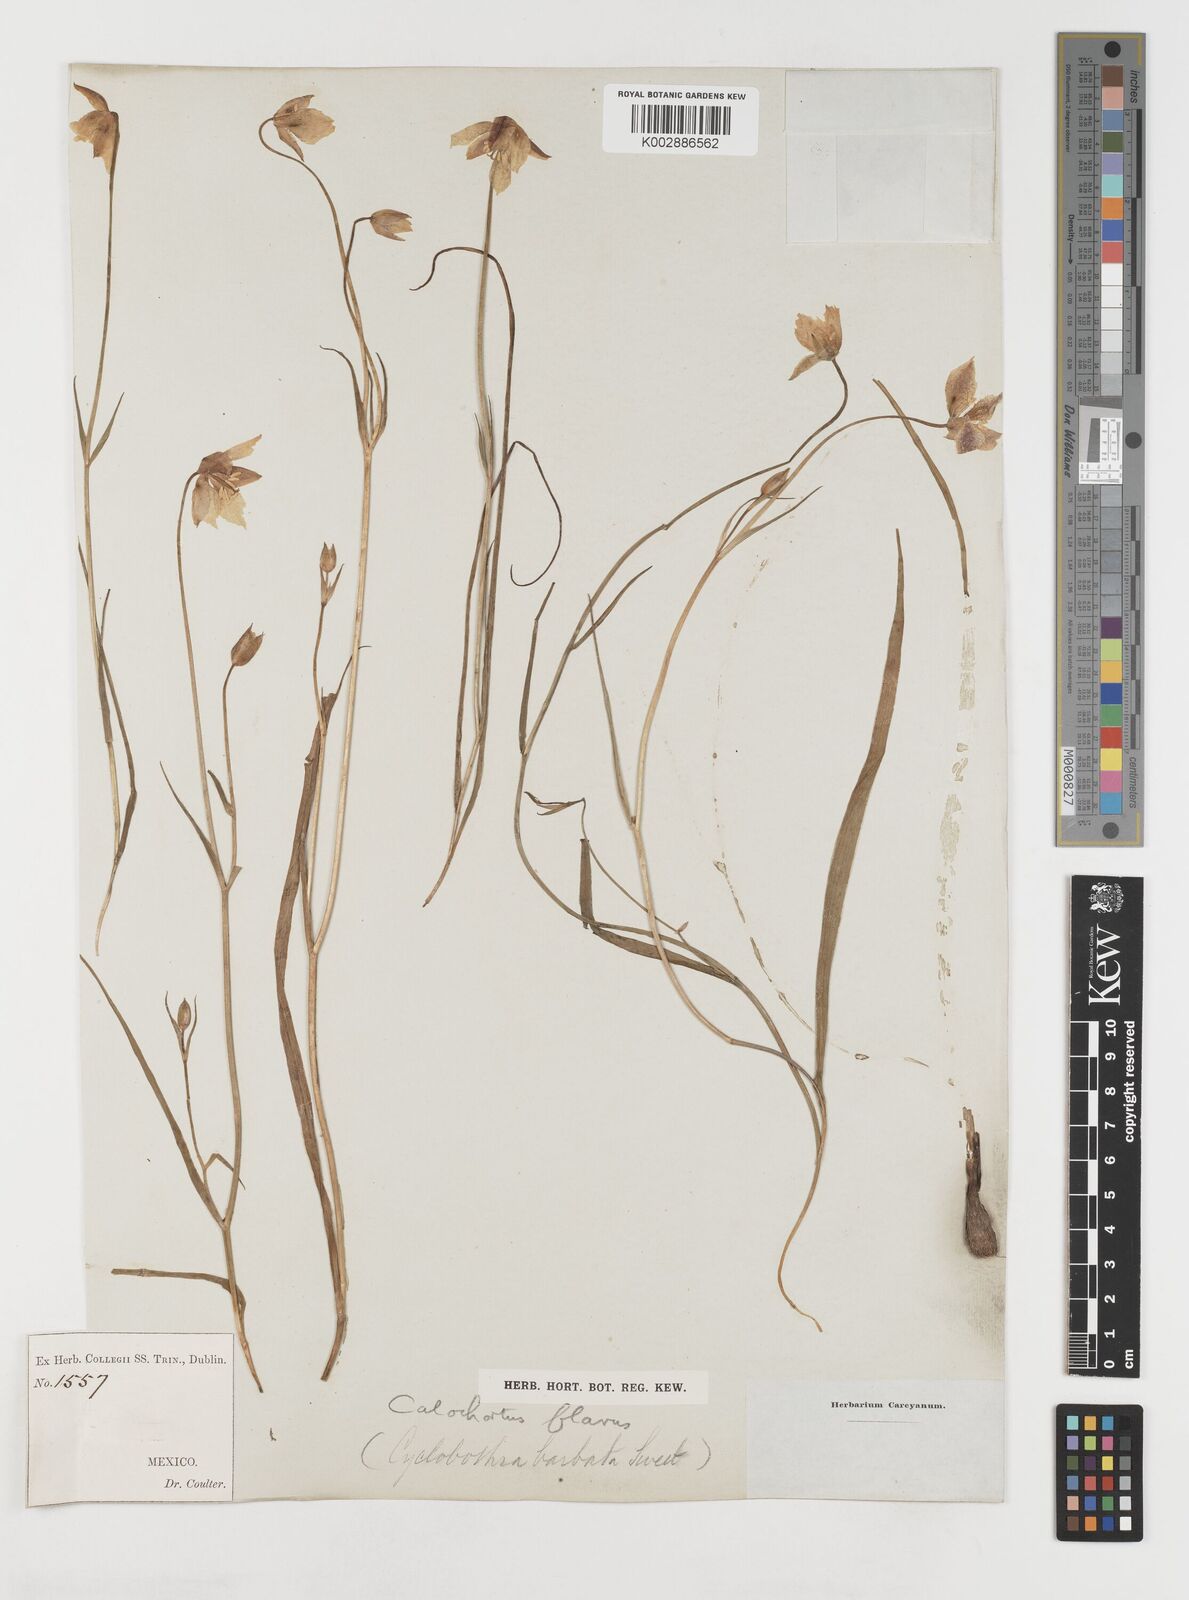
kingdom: Plantae
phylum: Tracheophyta
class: Liliopsida
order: Liliales
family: Liliaceae
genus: Calochortus
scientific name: Calochortus barbatus
